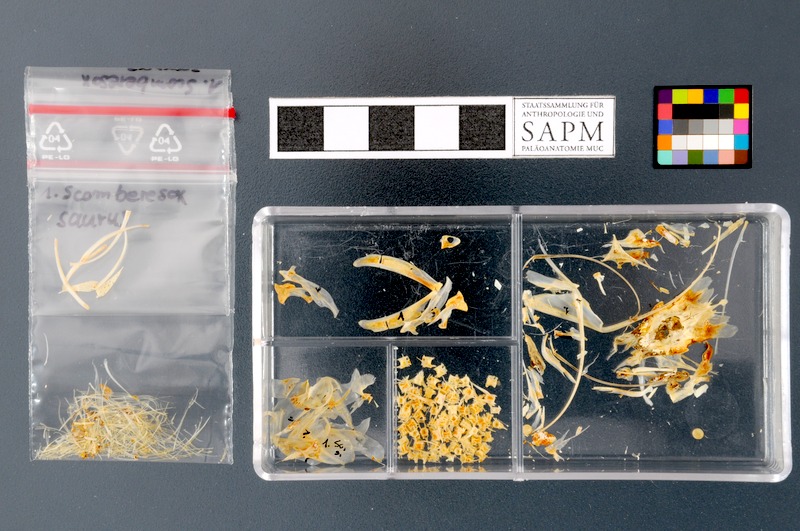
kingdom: Animalia
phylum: Chordata
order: Beloniformes
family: Scomberesocidae
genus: Scomberesox
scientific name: Scomberesox saurus
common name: Skipper
